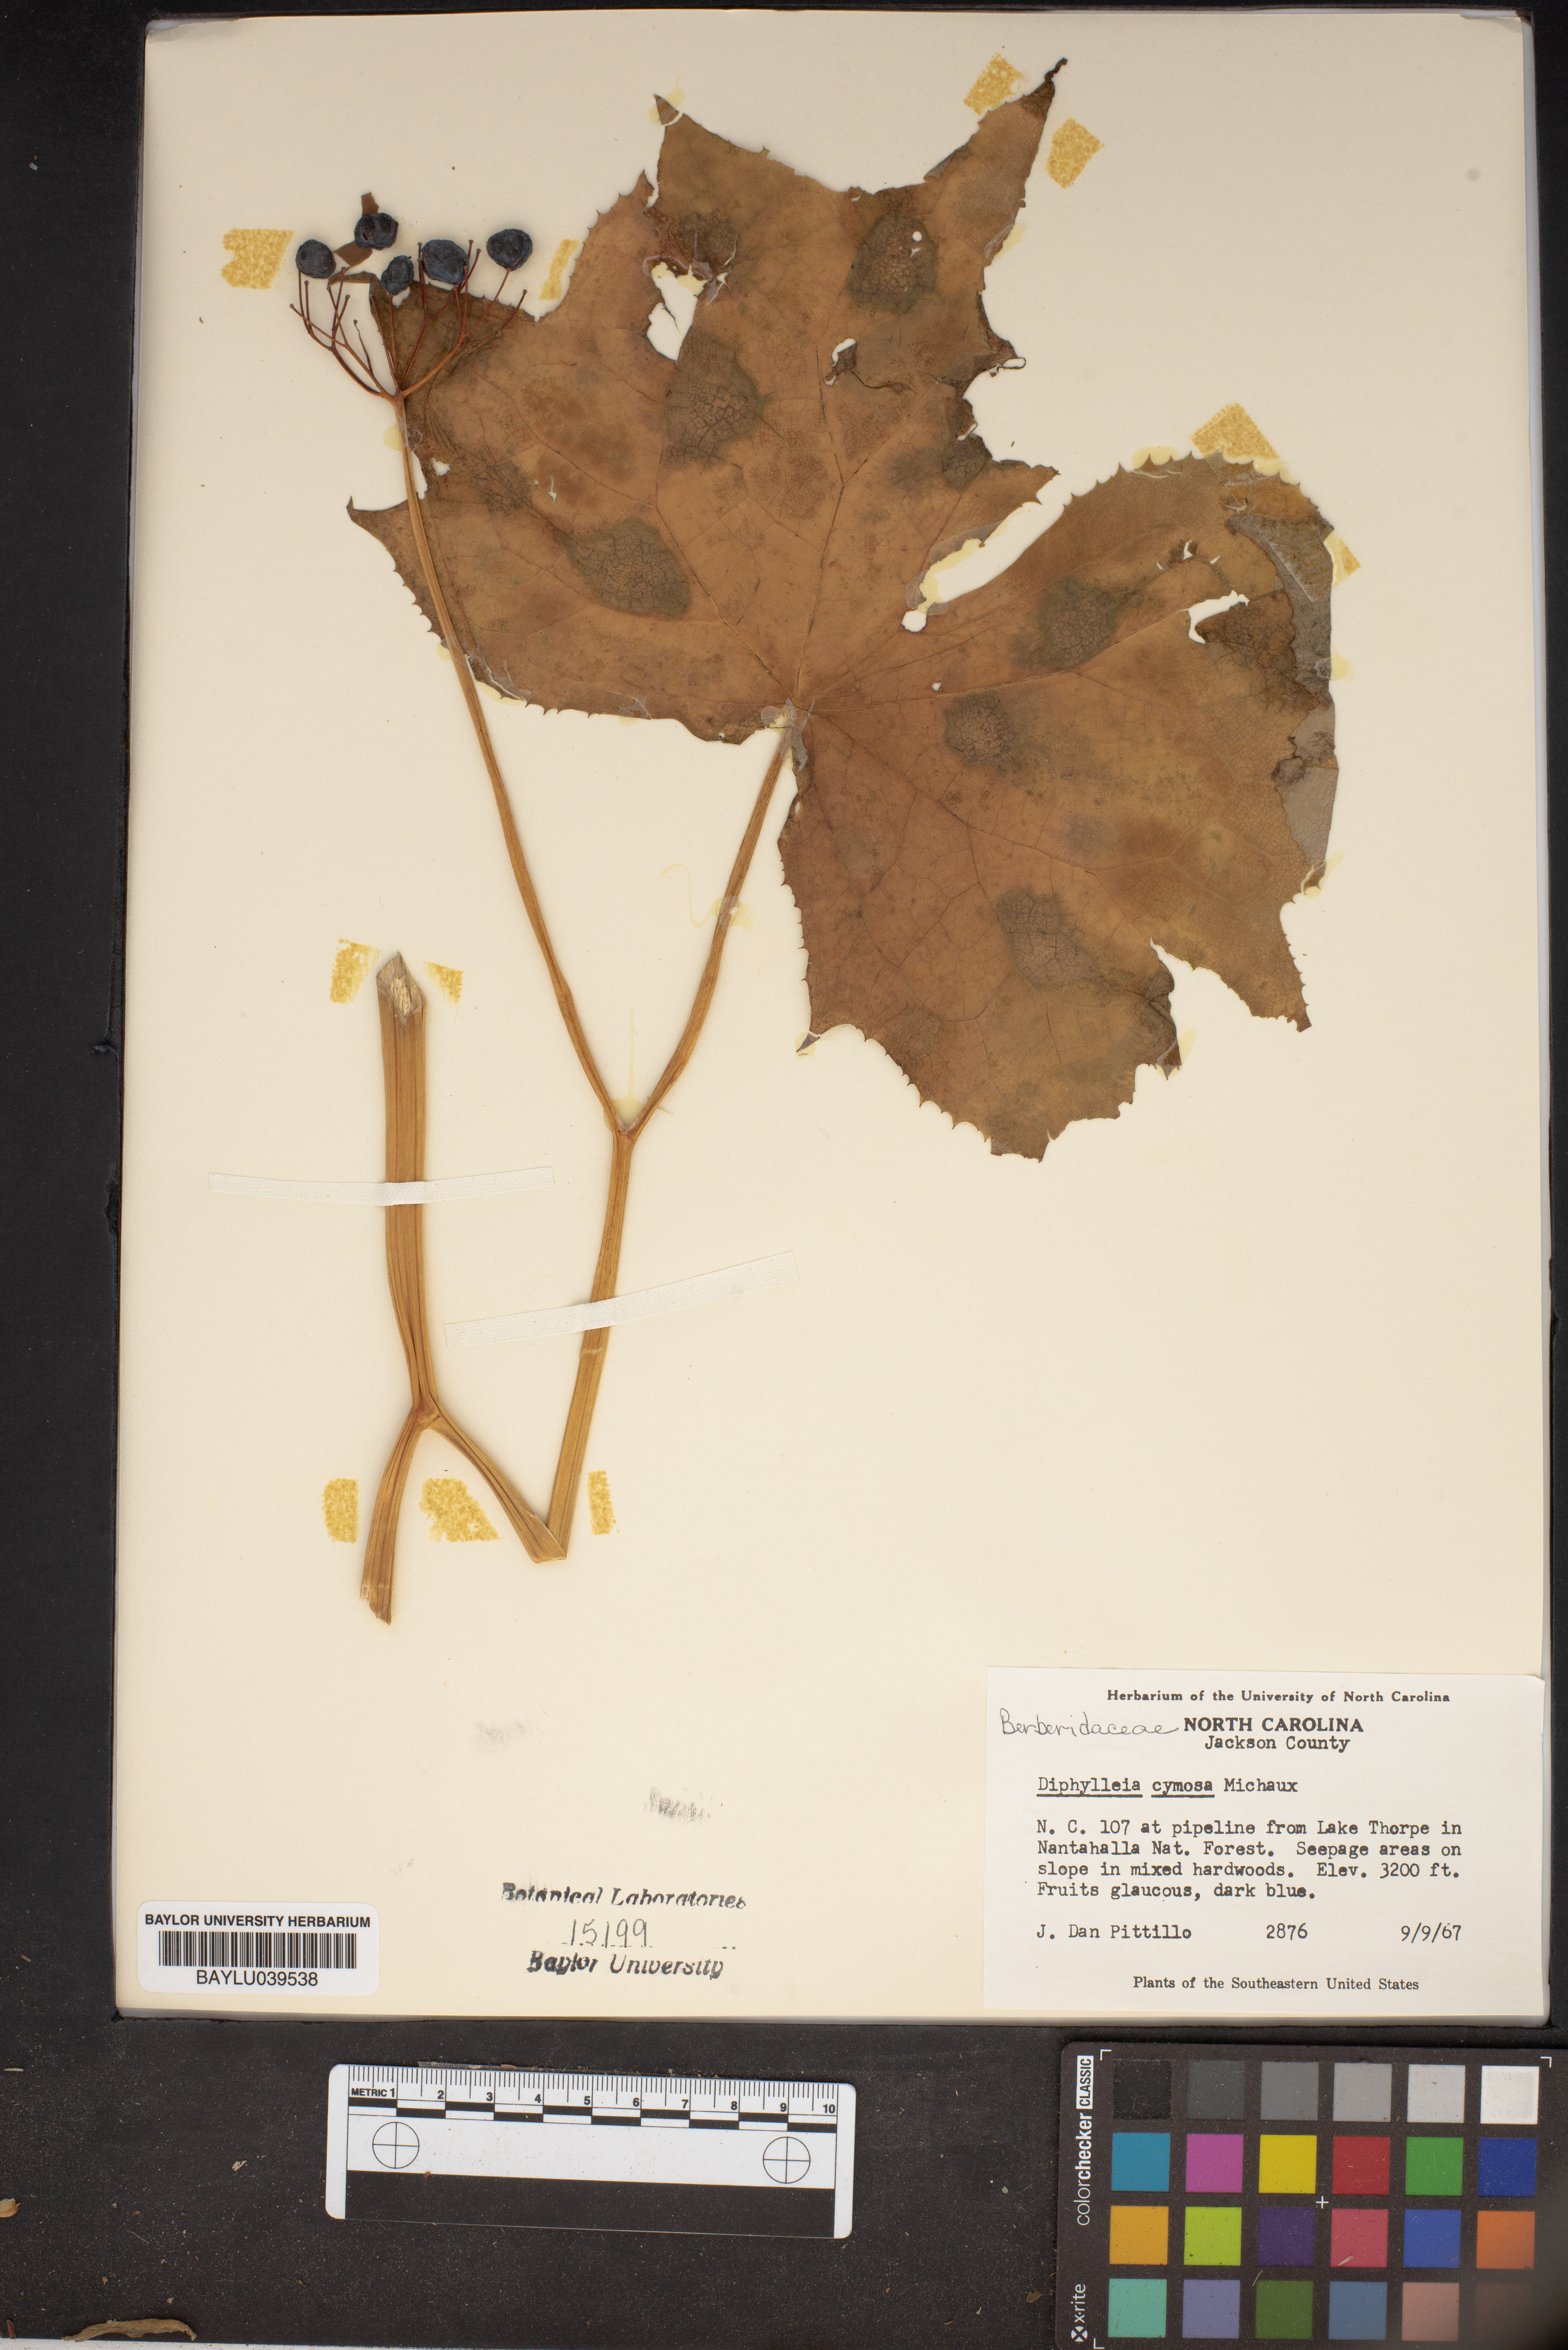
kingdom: Plantae
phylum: Tracheophyta
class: Magnoliopsida
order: Ranunculales
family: Berberidaceae
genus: Diphylleia
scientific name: Diphylleia cymosa
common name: Umbrella-leaf
